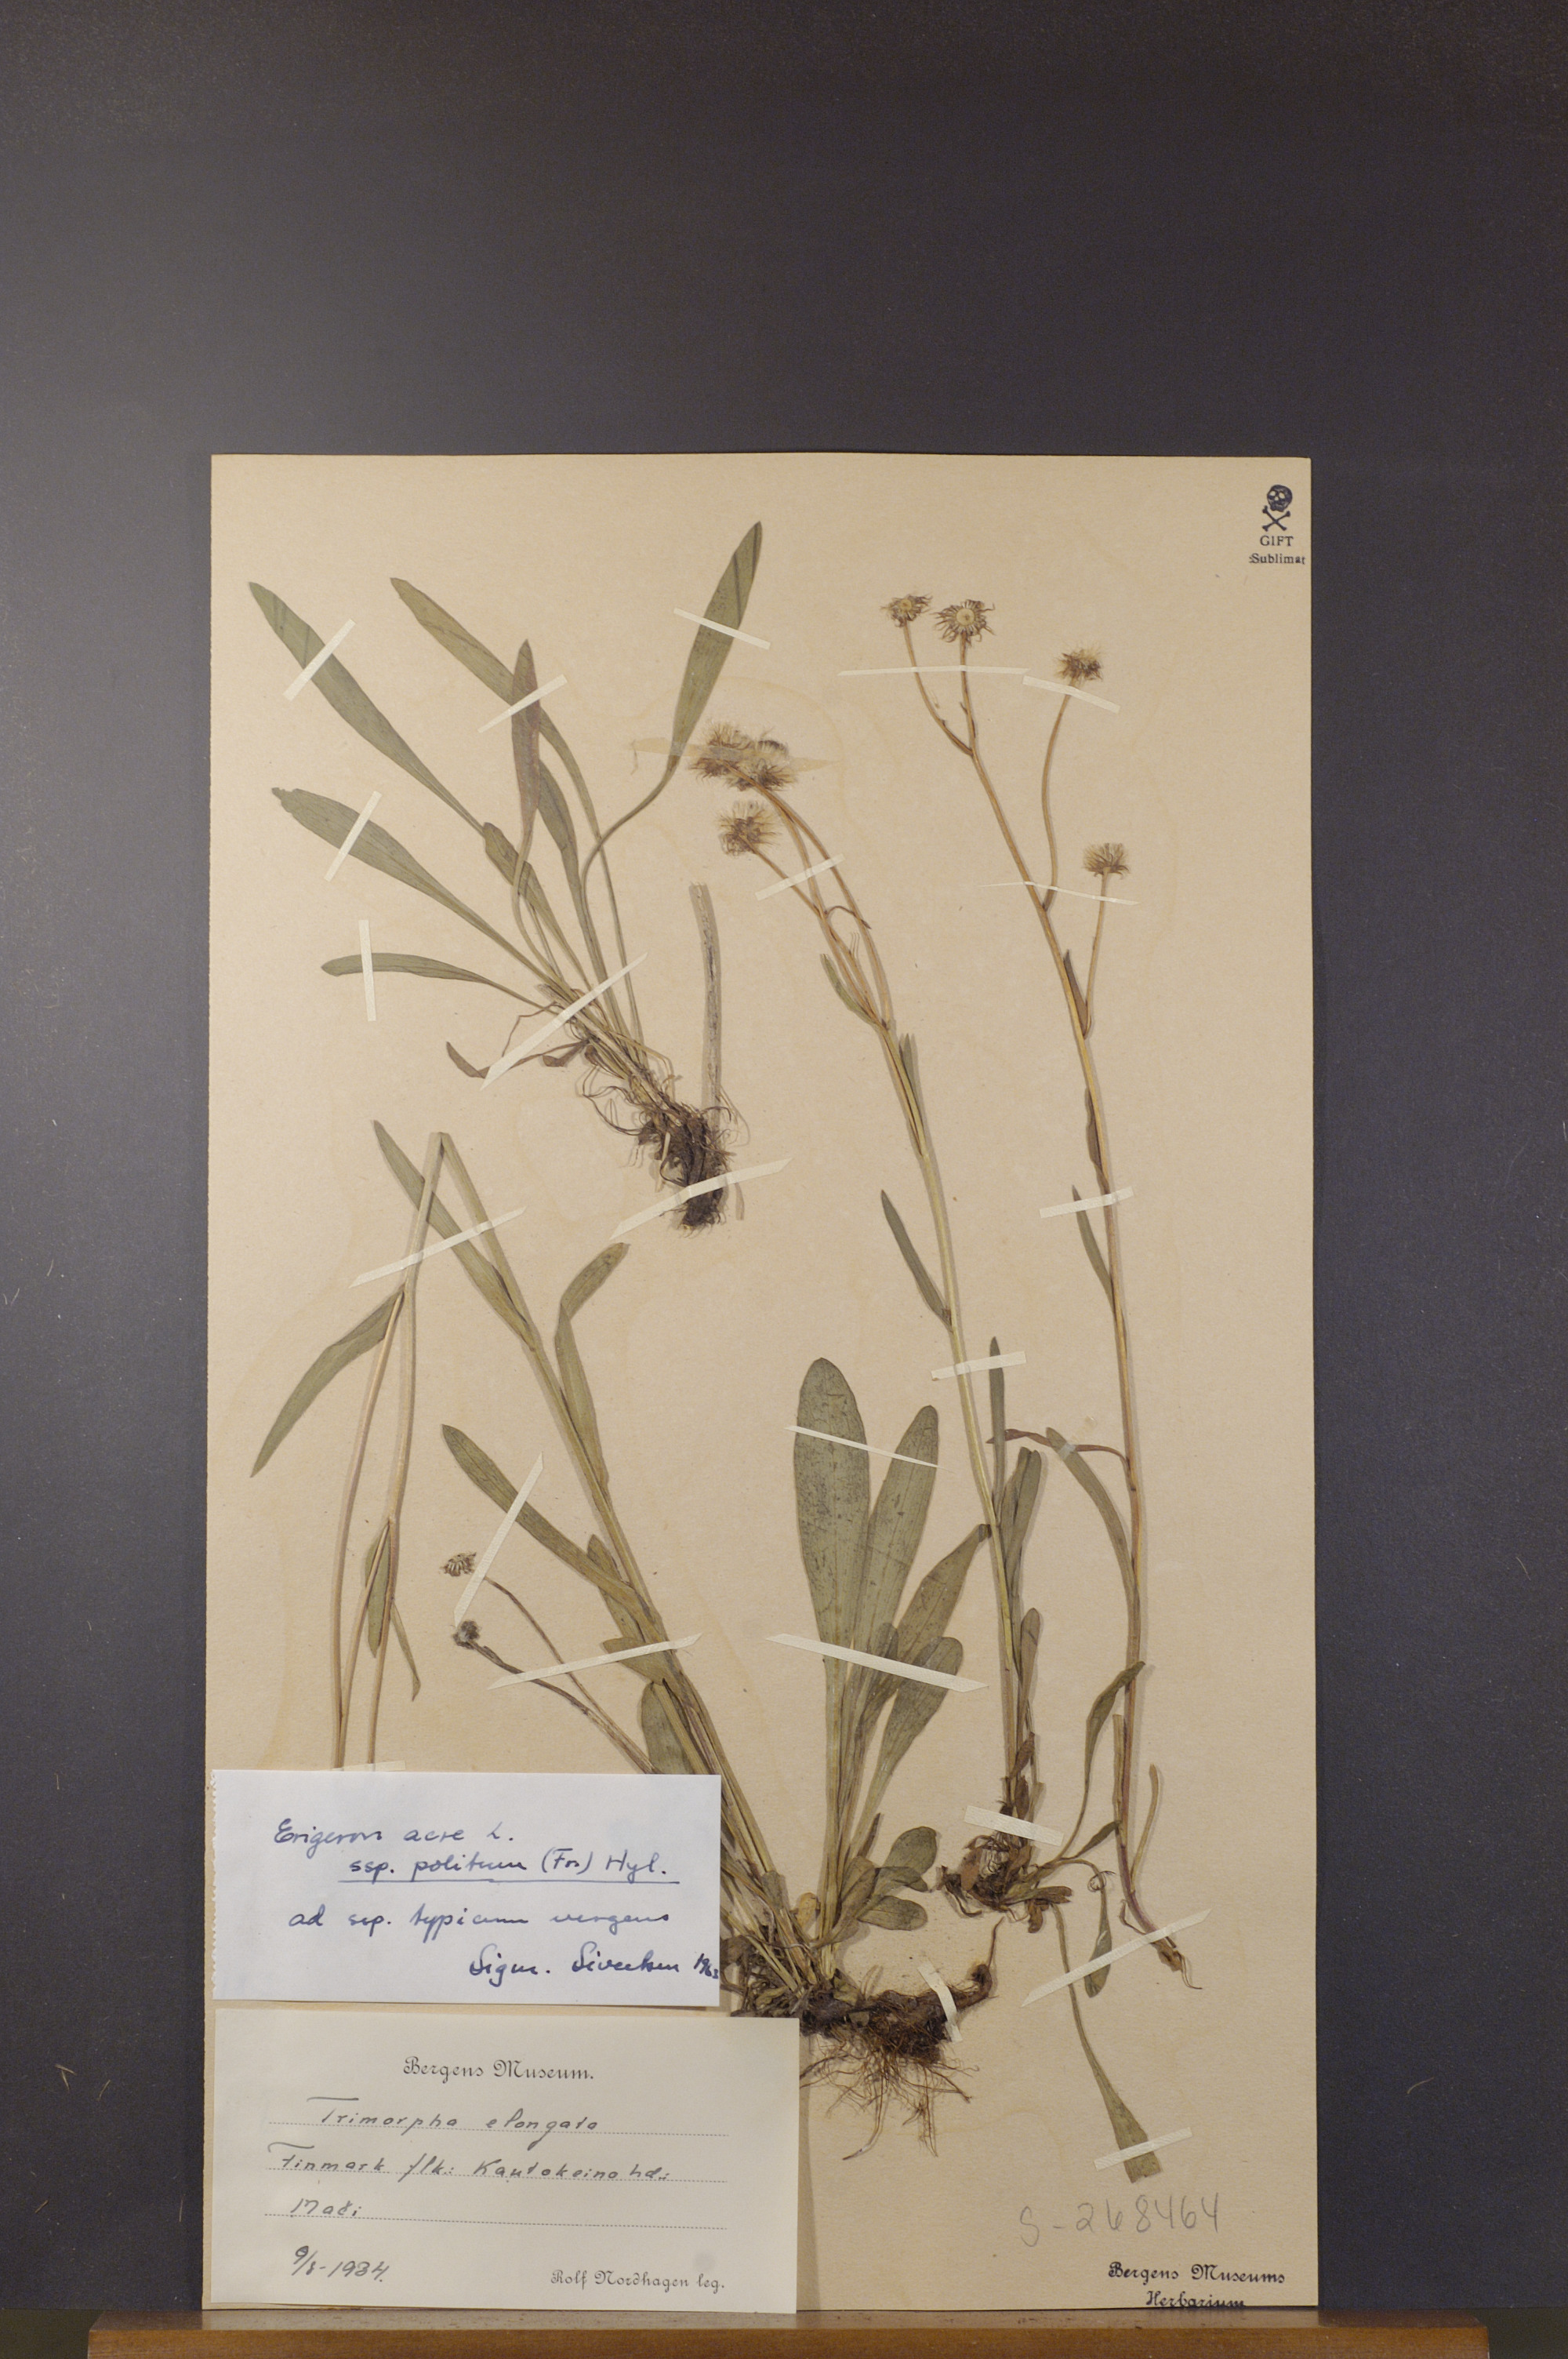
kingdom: Plantae
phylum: Tracheophyta
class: Magnoliopsida
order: Asterales
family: Asteraceae
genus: Erigeron
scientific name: Erigeron politus
